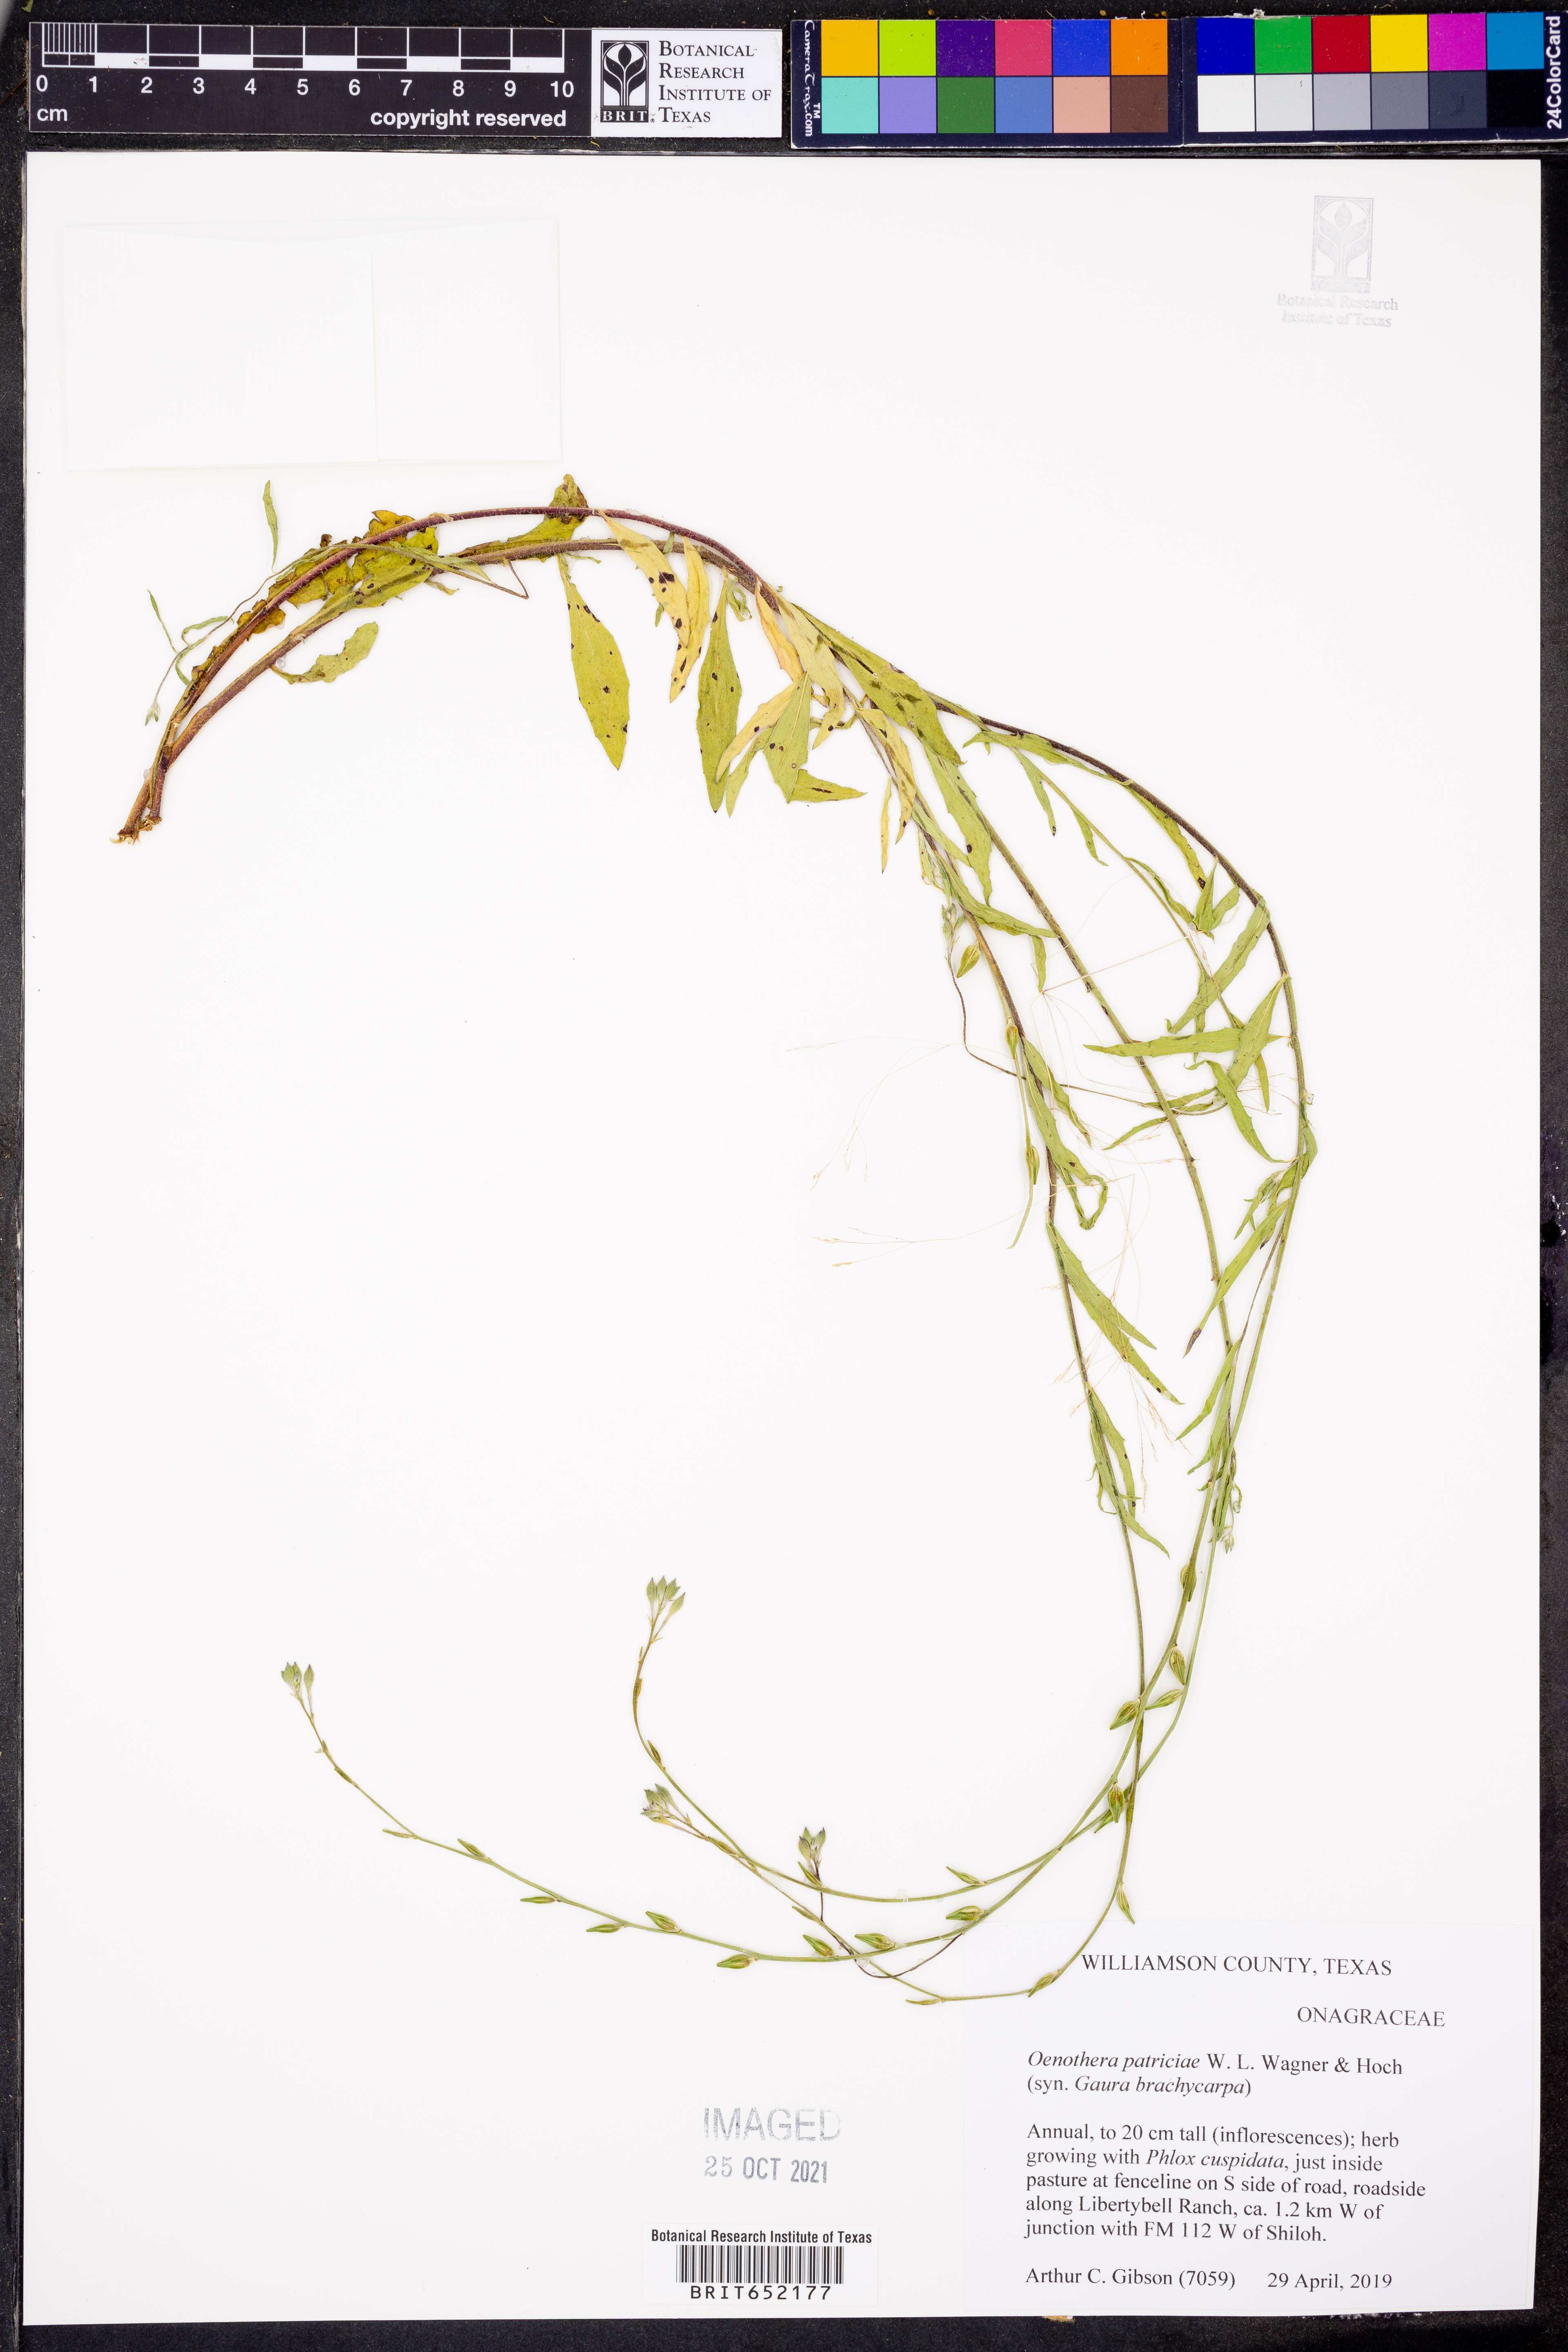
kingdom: Plantae
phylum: Tracheophyta
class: Magnoliopsida
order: Myrtales
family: Onagraceae
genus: Oenothera
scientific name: Oenothera patriciae
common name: Plains beeblossom
